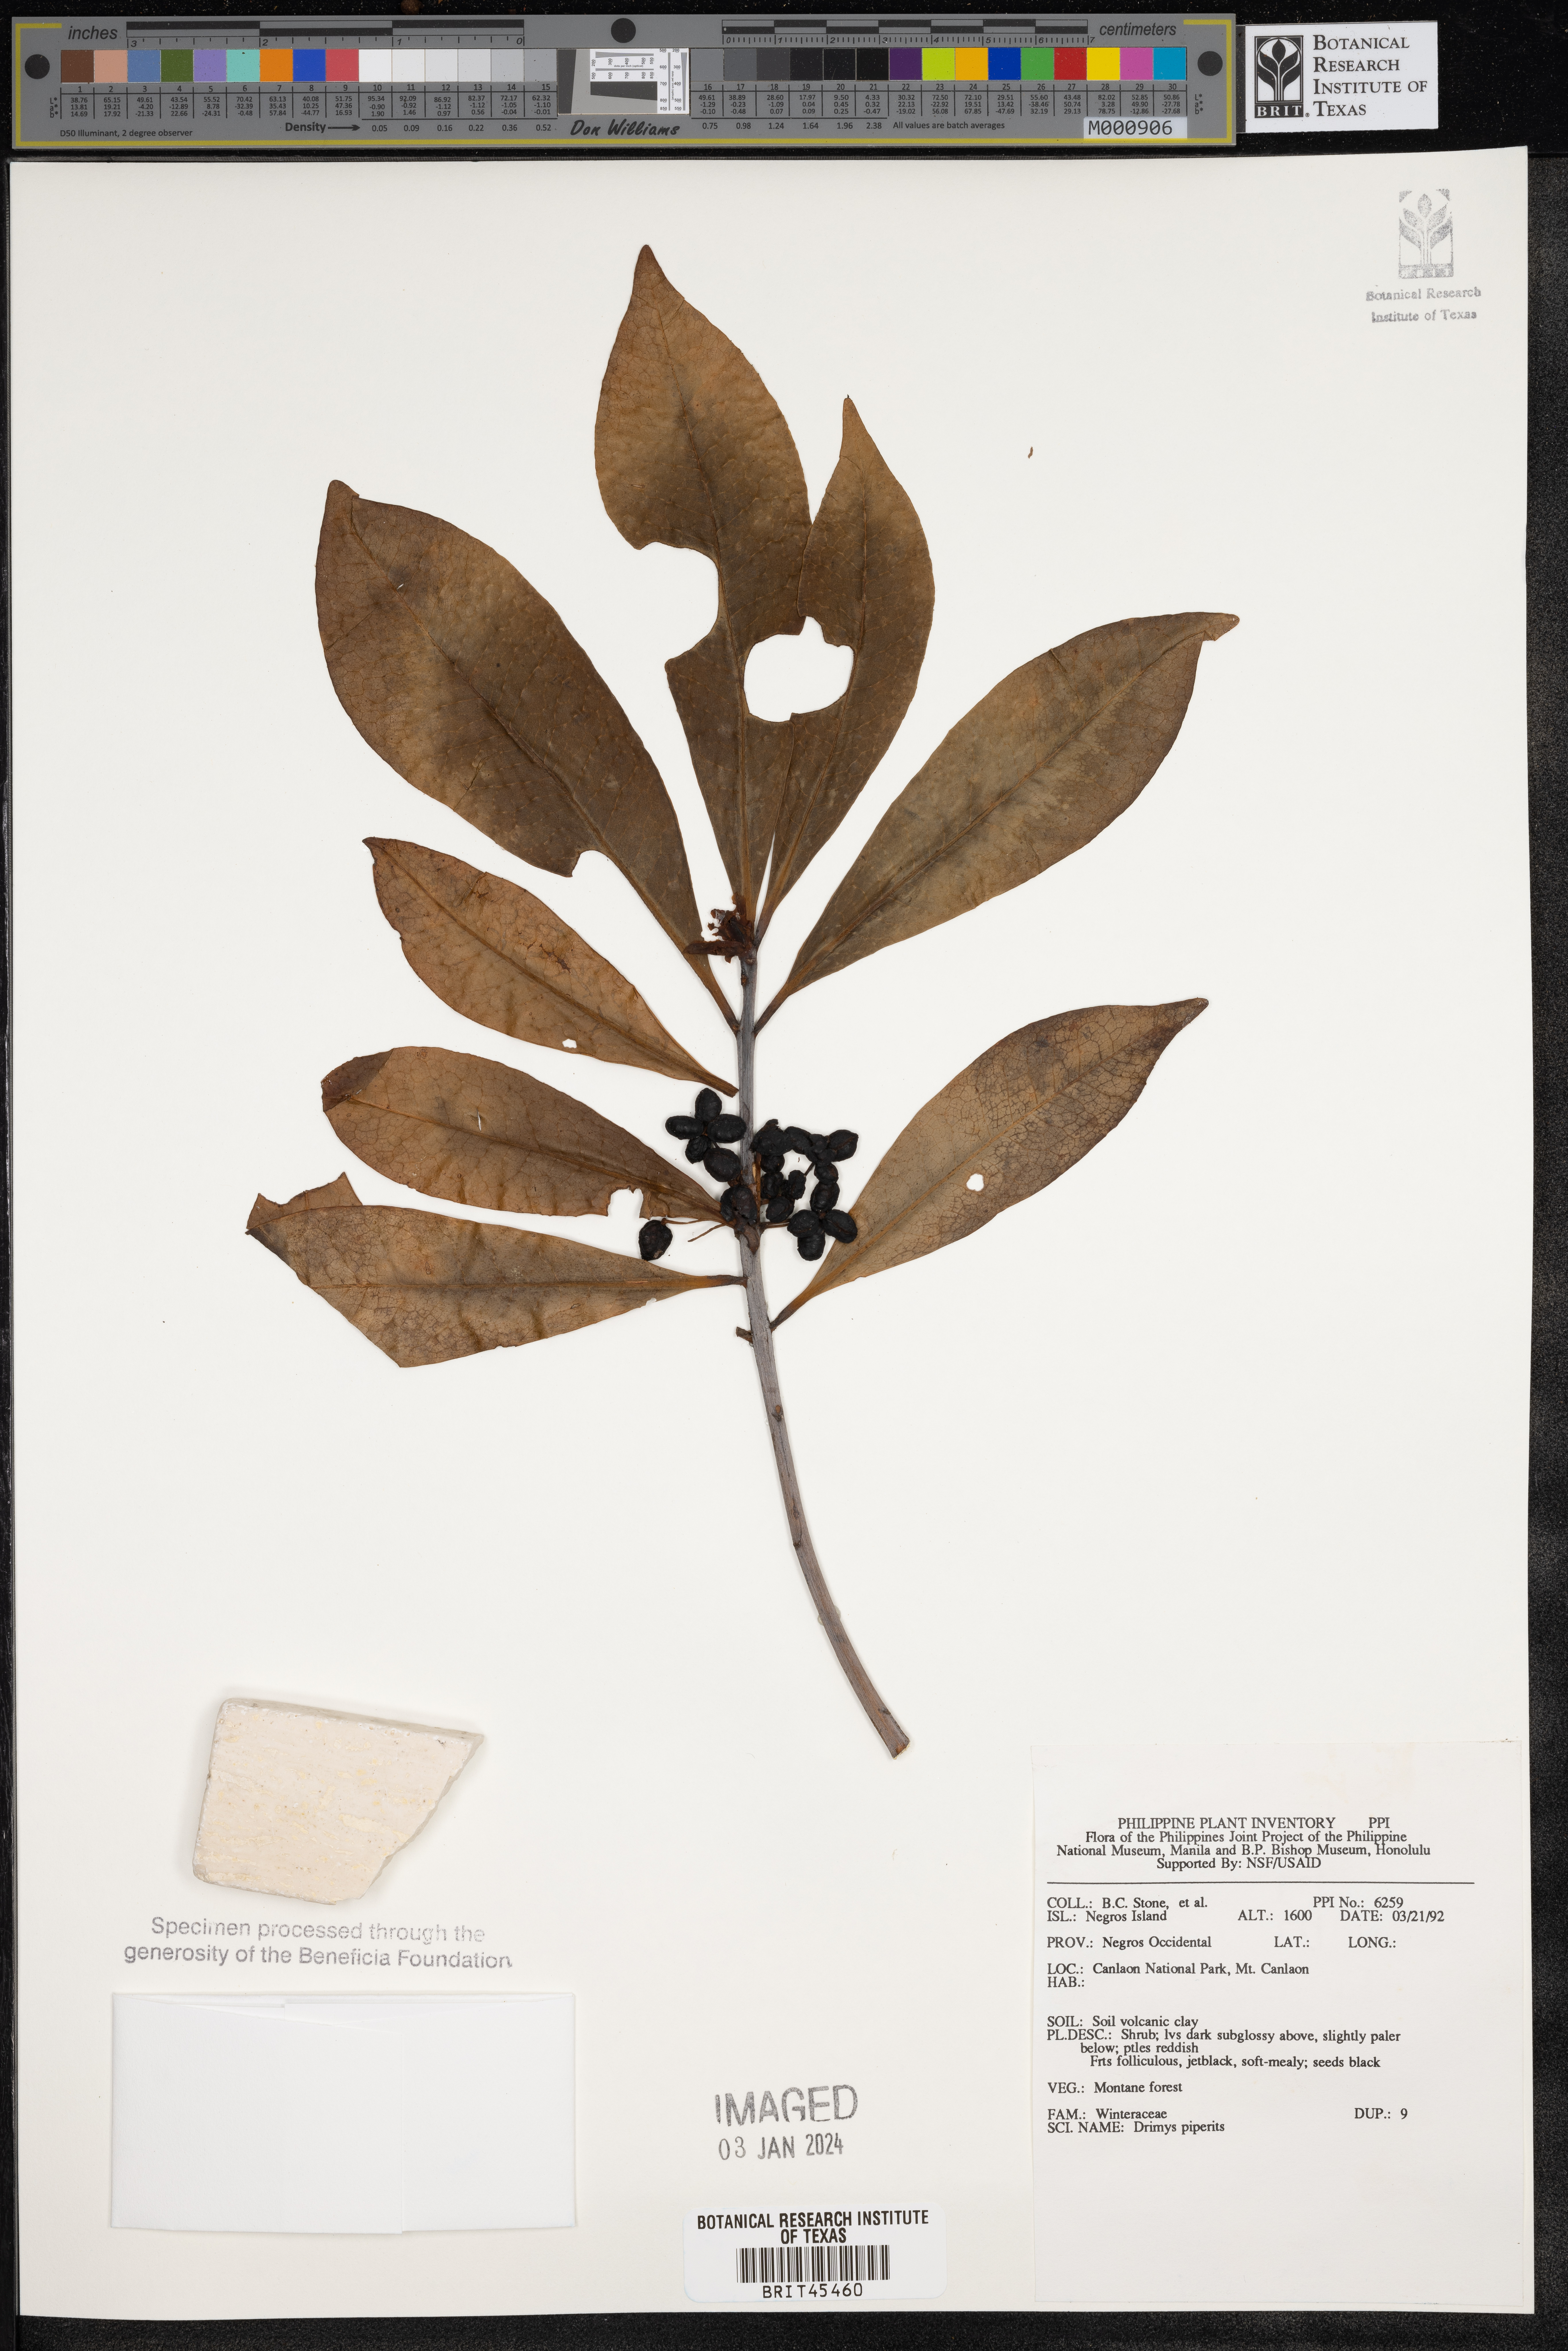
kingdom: Plantae
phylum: Tracheophyta
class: Magnoliopsida
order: Canellales
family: Winteraceae
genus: Drimys
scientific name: Drimys piperita
